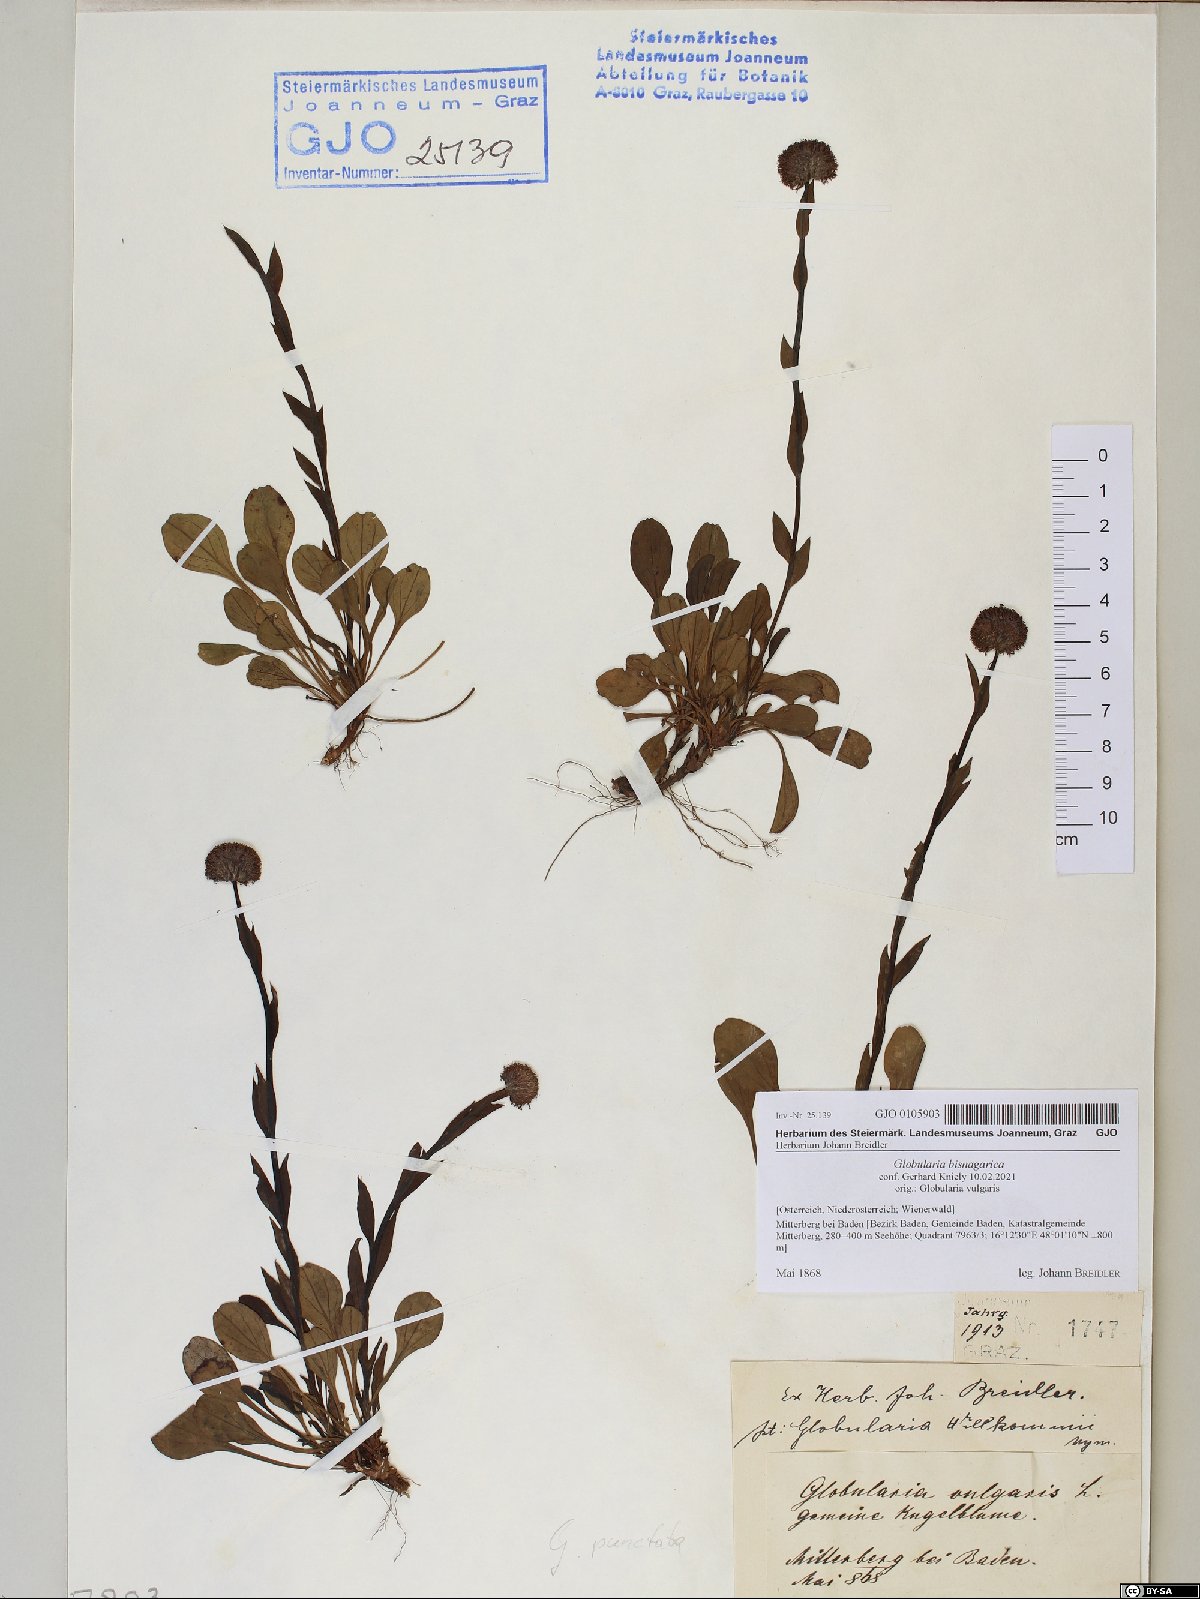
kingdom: Plantae
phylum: Tracheophyta
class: Magnoliopsida
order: Lamiales
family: Plantaginaceae
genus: Globularia
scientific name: Globularia bisnagarica
